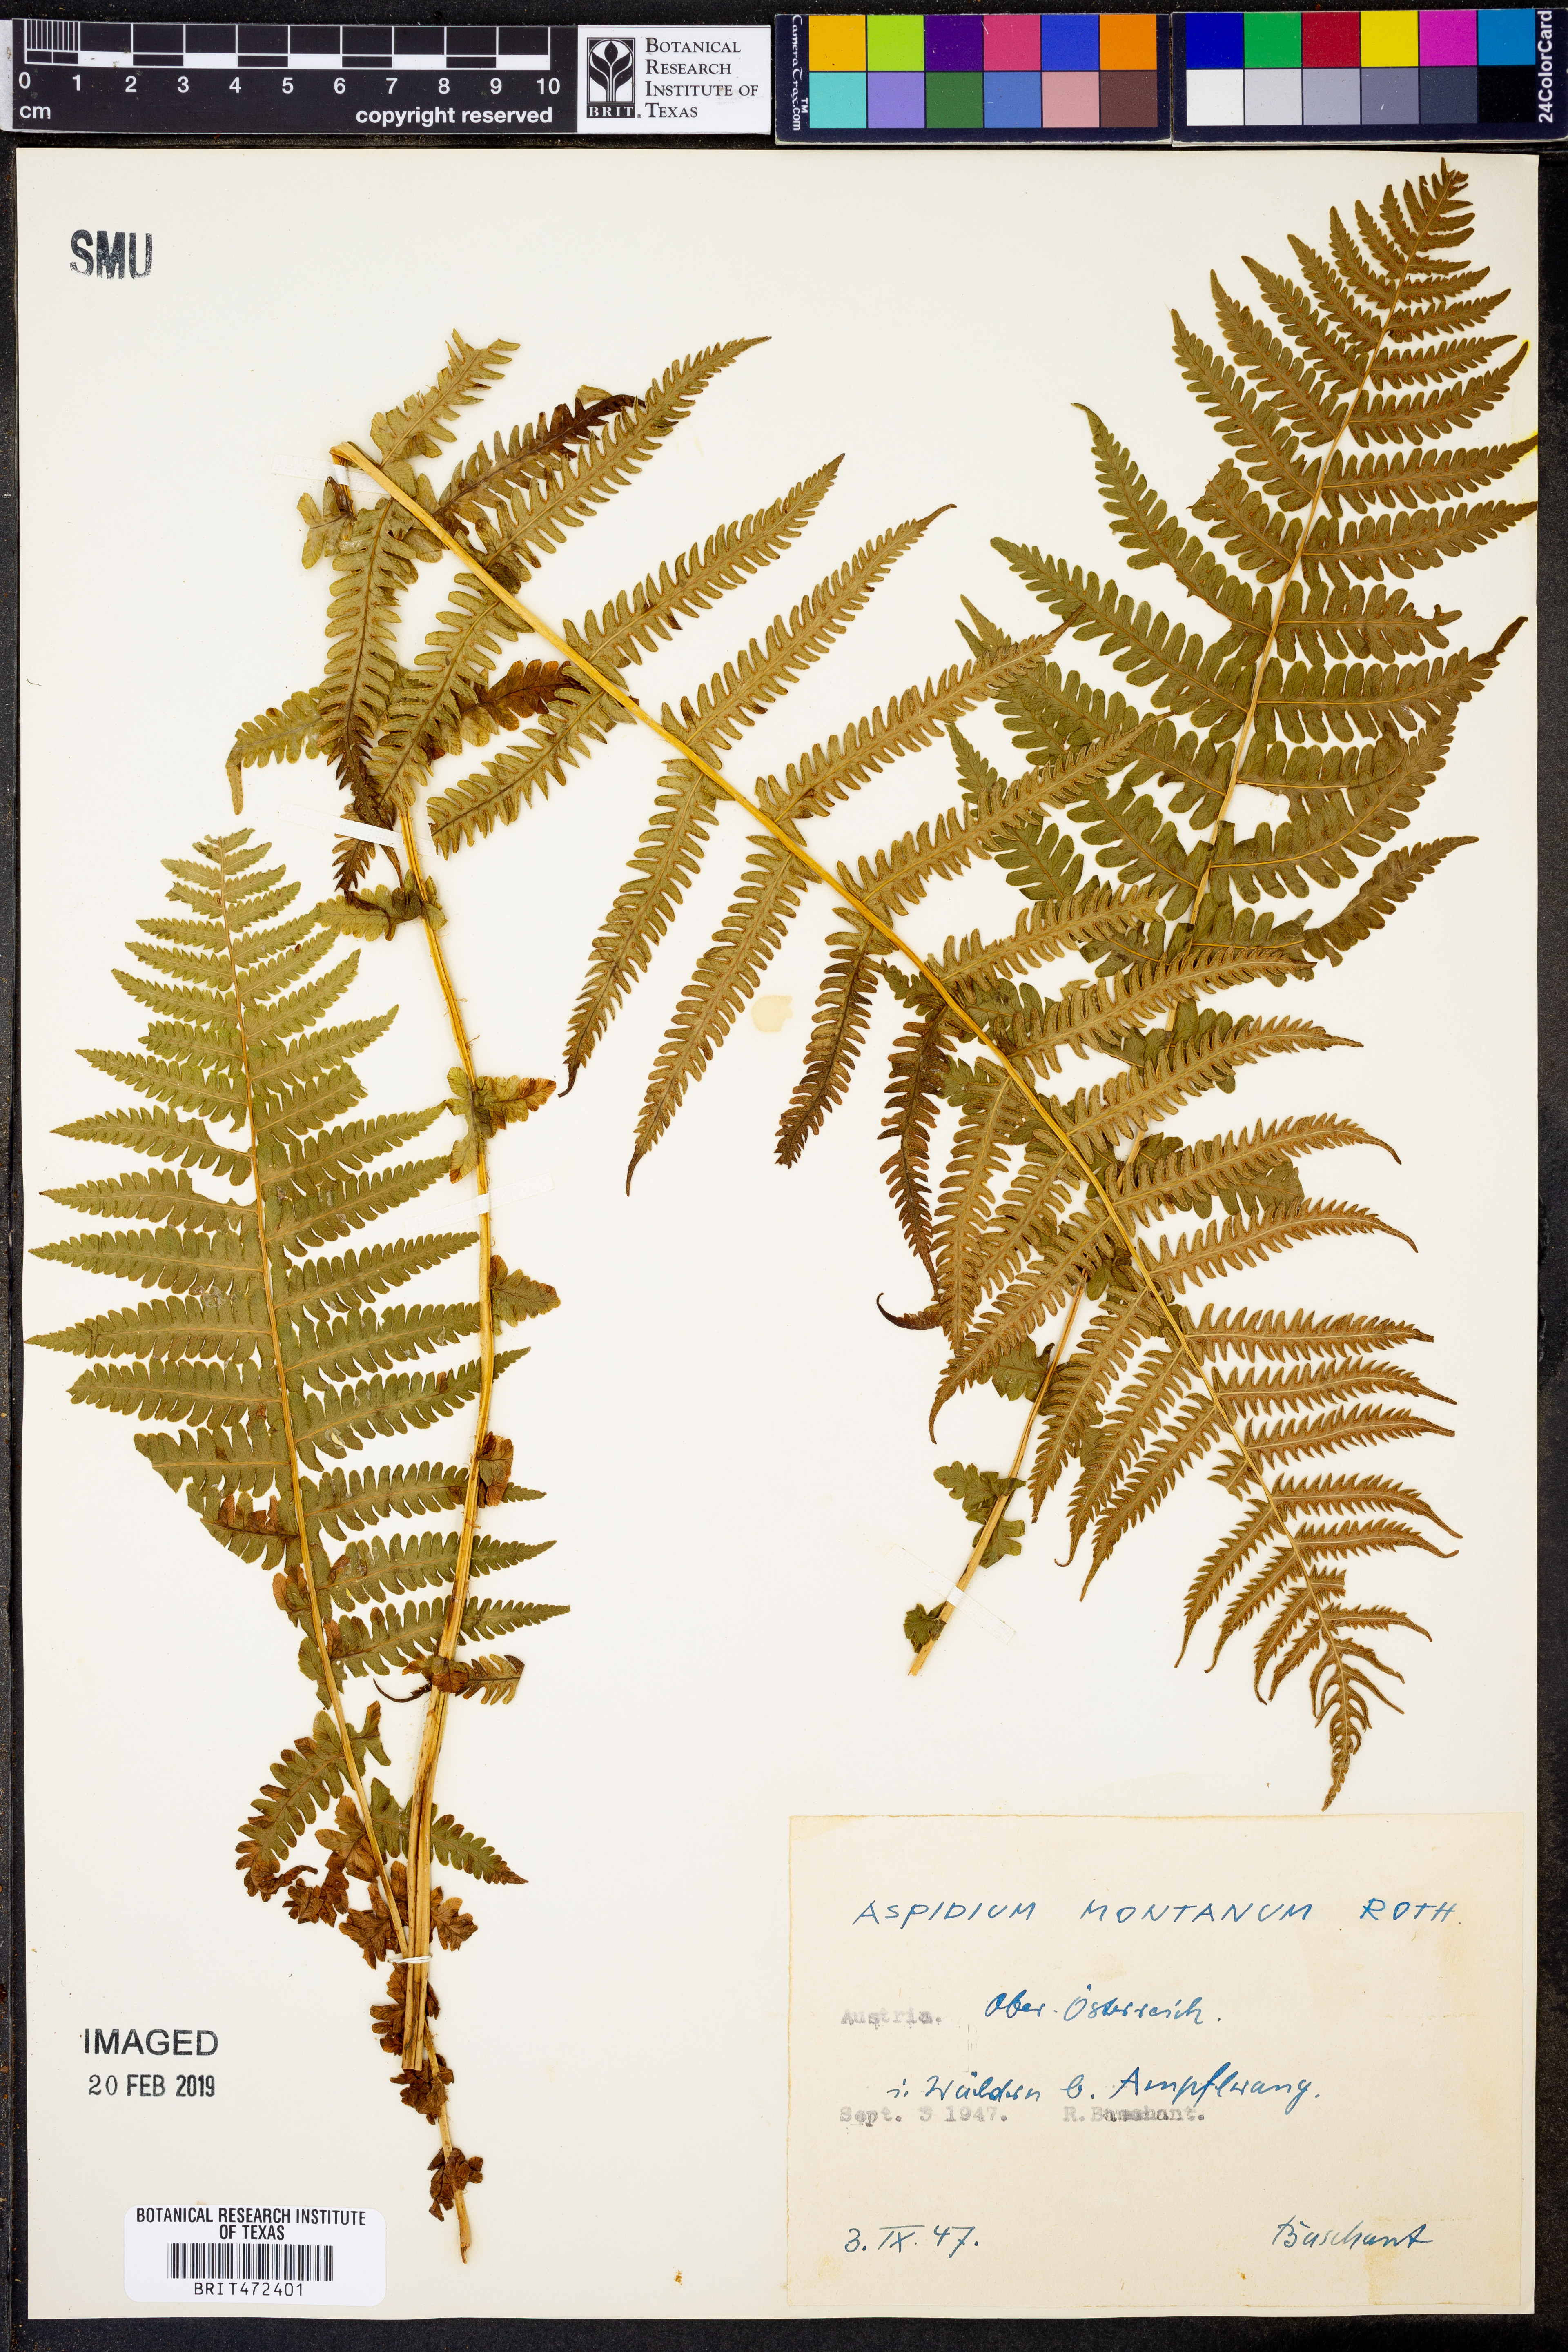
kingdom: Plantae
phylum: Tracheophyta
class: Polypodiopsida
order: Polypodiales
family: Cystopteridaceae
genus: Cystopteris
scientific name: Cystopteris montana
